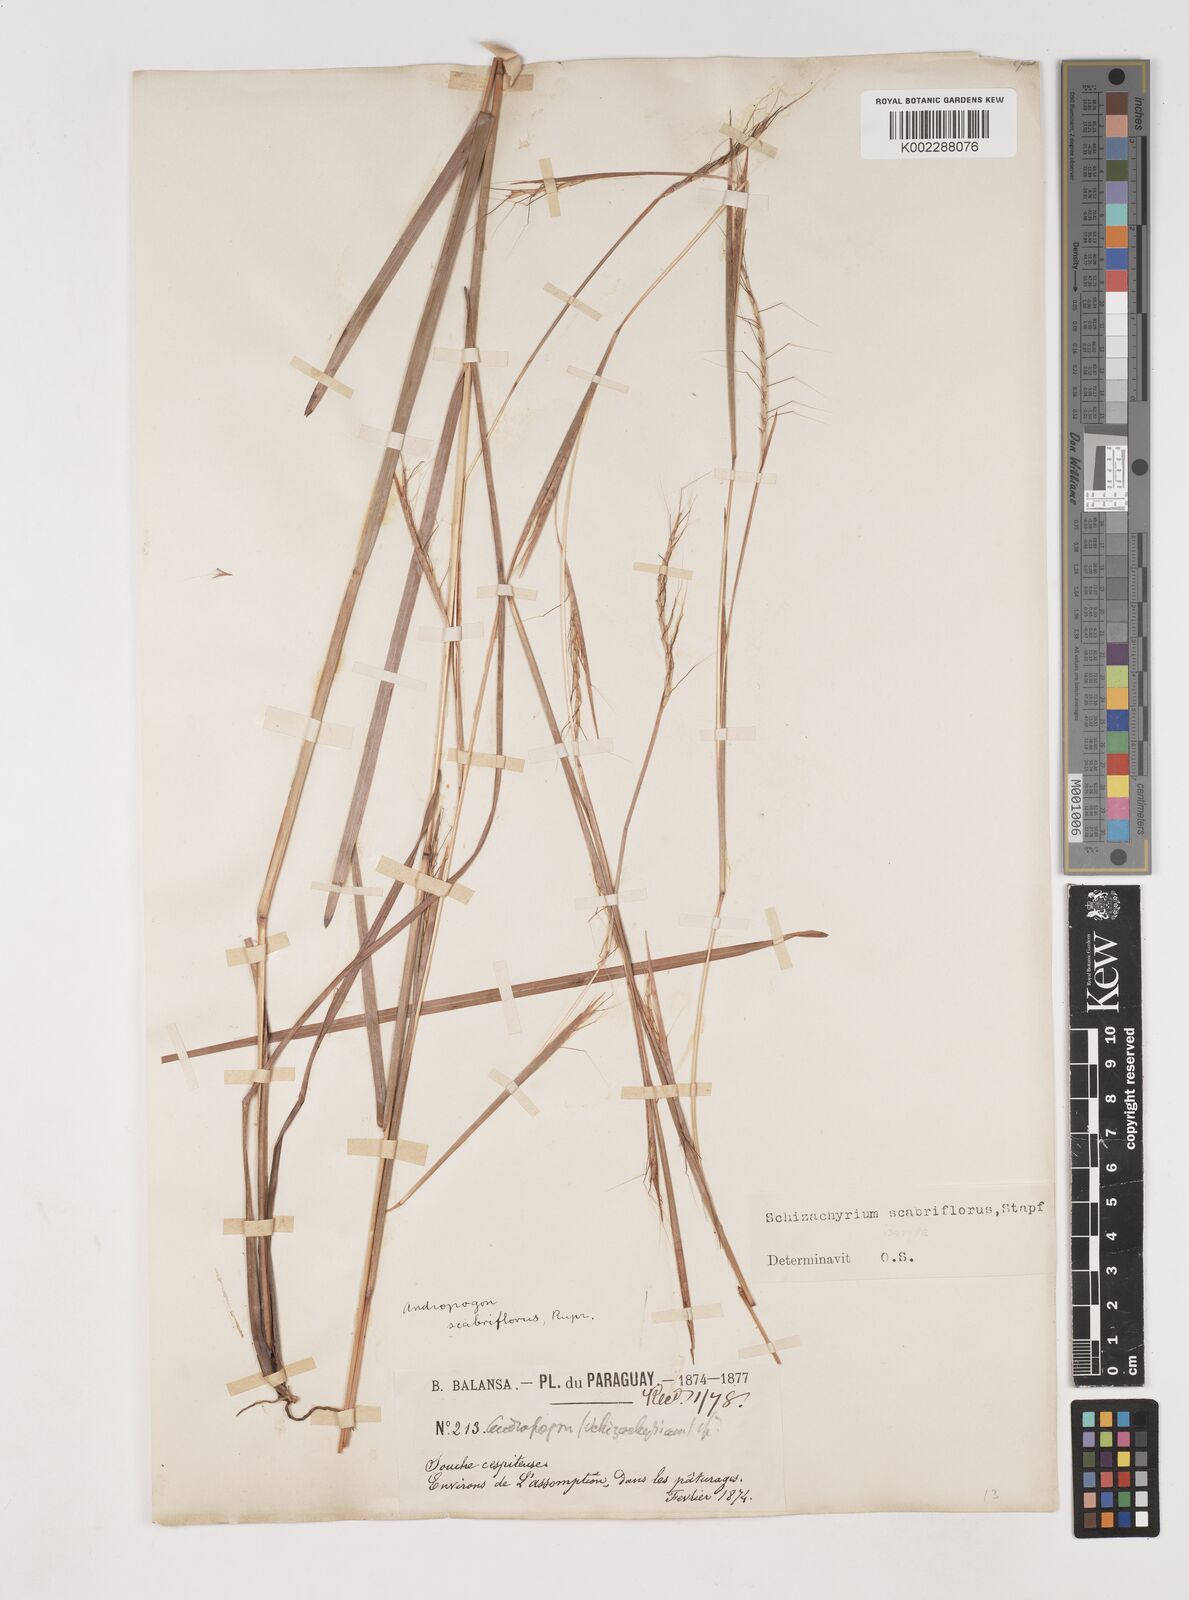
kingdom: Plantae
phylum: Tracheophyta
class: Liliopsida
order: Poales
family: Poaceae
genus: Schizachyrium
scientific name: Schizachyrium scabriflorum
